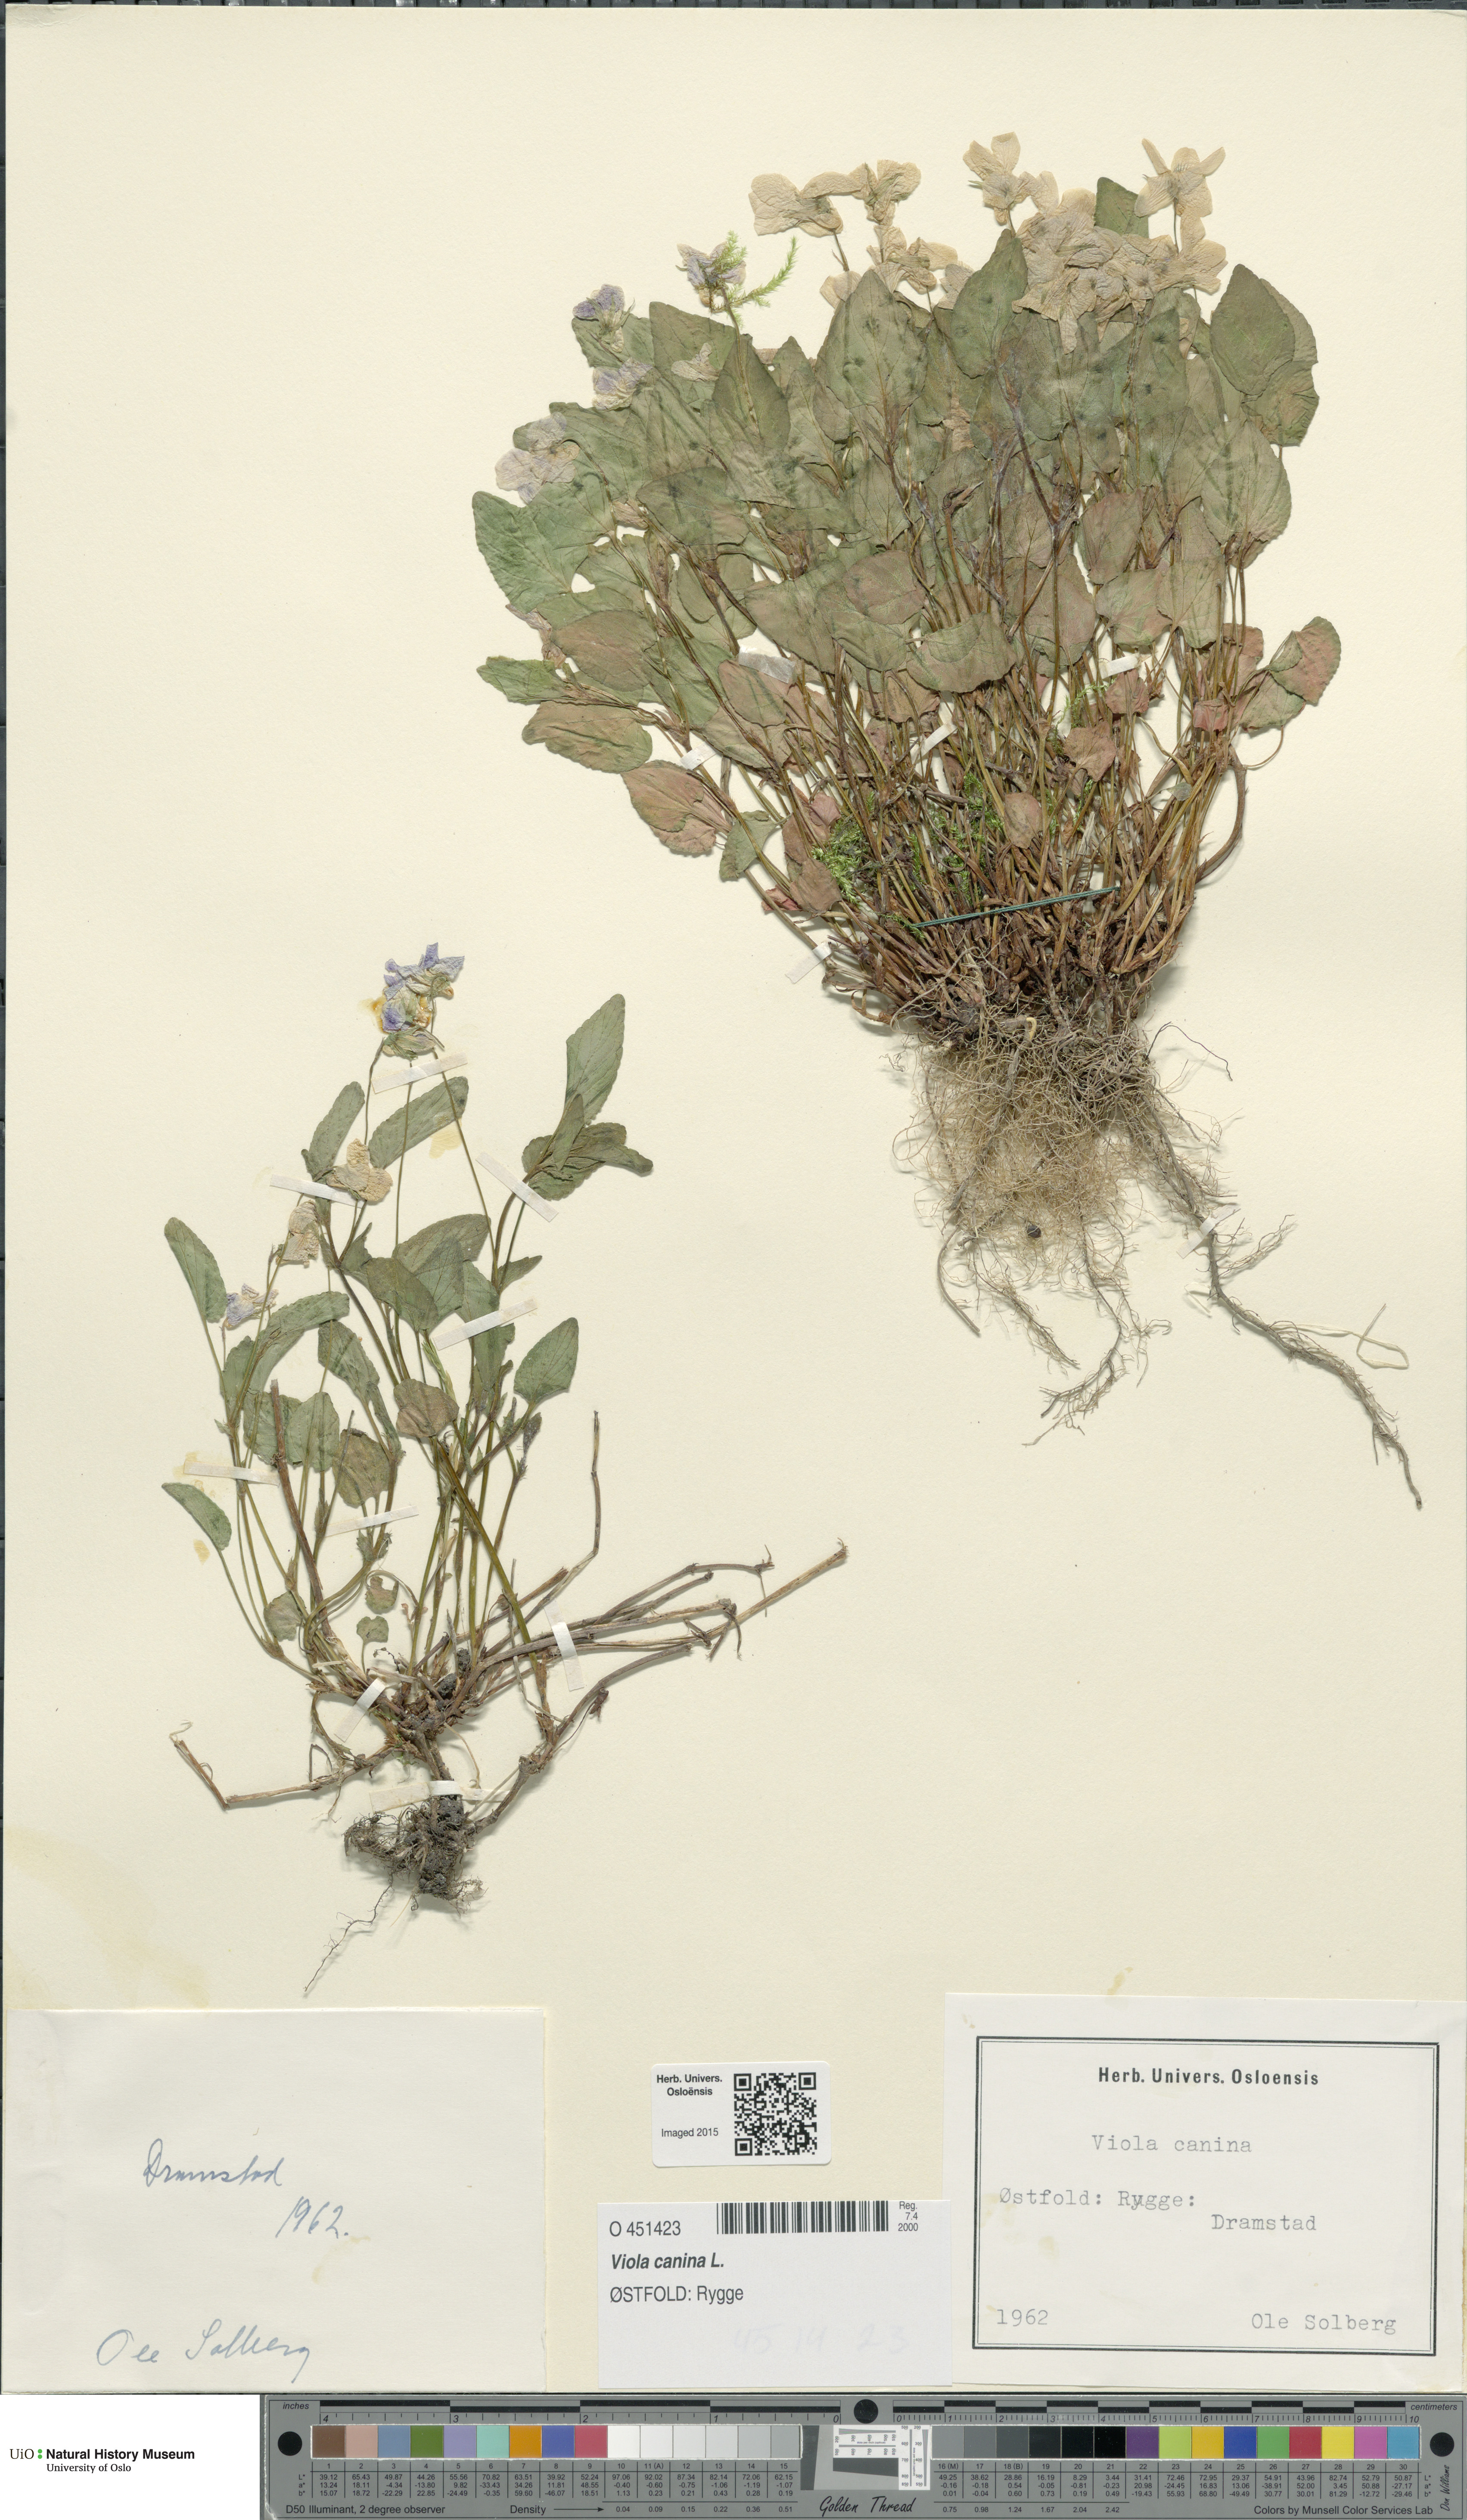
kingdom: Plantae
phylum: Tracheophyta
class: Magnoliopsida
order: Malpighiales
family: Violaceae
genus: Viola
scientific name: Viola canina
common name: Heath dog-violet
